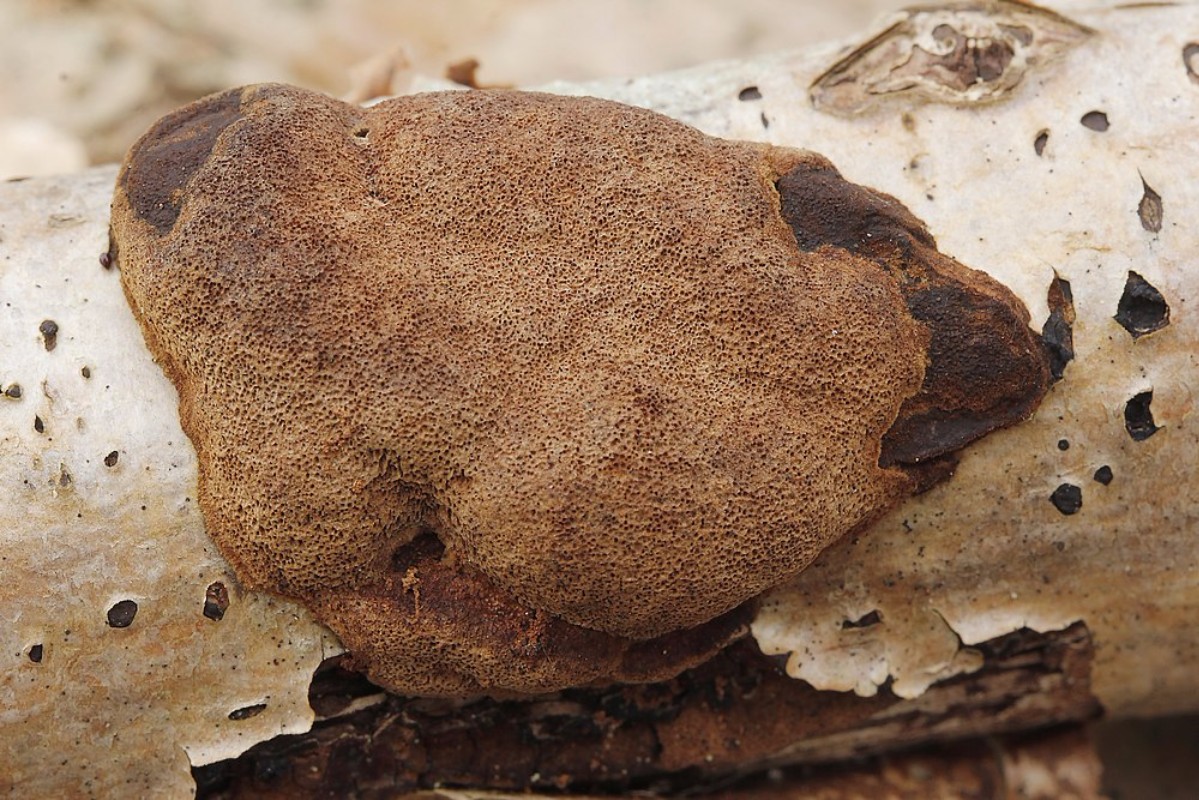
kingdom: Fungi
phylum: Basidiomycota
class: Agaricomycetes
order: Hymenochaetales
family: Hymenochaetaceae
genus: Fuscoporia
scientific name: Fuscoporia ferruginosa
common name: rustbrun ildporesvamp
